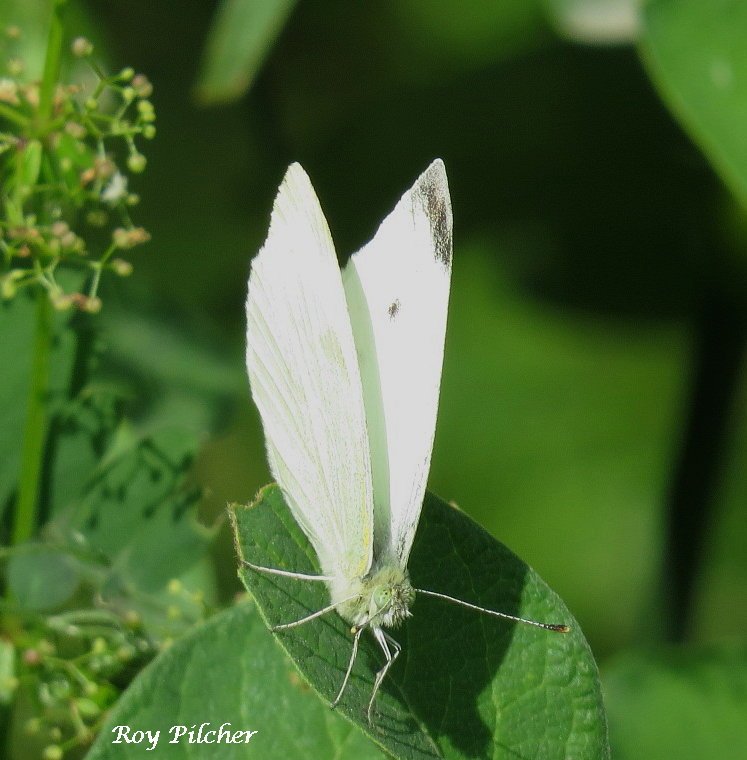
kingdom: Animalia
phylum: Arthropoda
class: Insecta
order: Lepidoptera
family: Pieridae
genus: Pieris
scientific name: Pieris rapae
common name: Cabbage White
